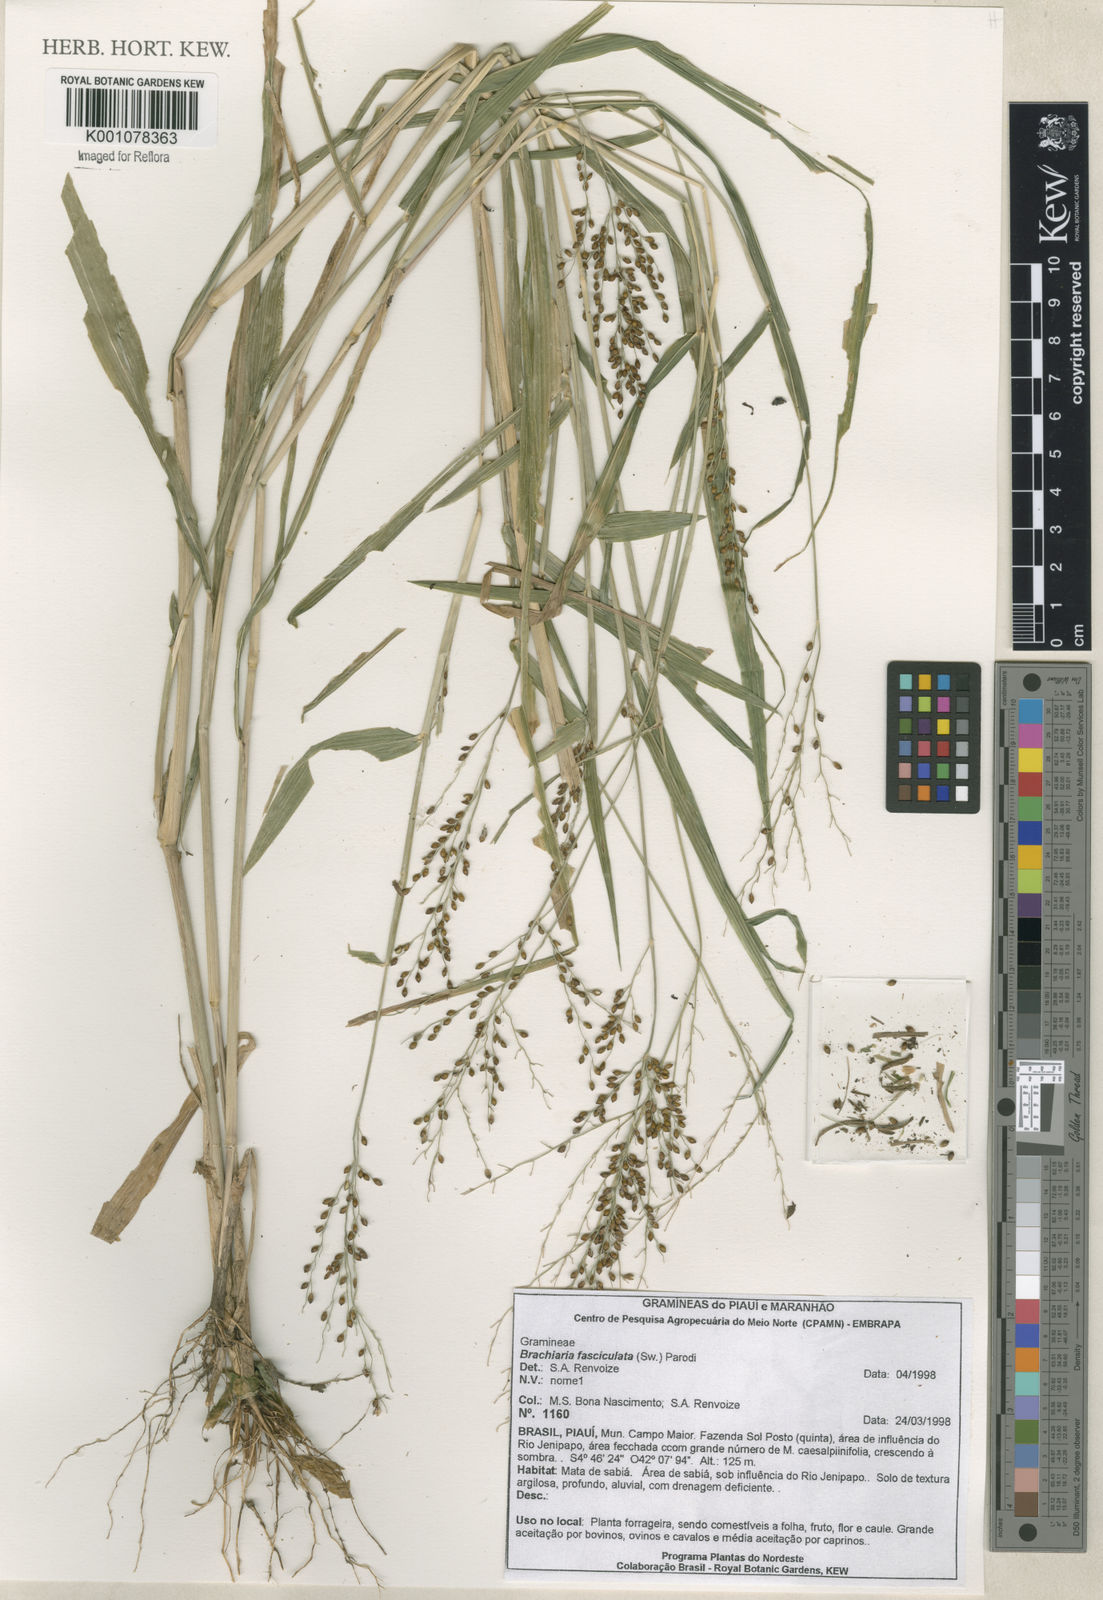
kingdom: Plantae
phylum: Tracheophyta
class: Liliopsida
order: Poales
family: Poaceae
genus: Urochloa
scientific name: Urochloa fusca
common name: Browntop signal grass
